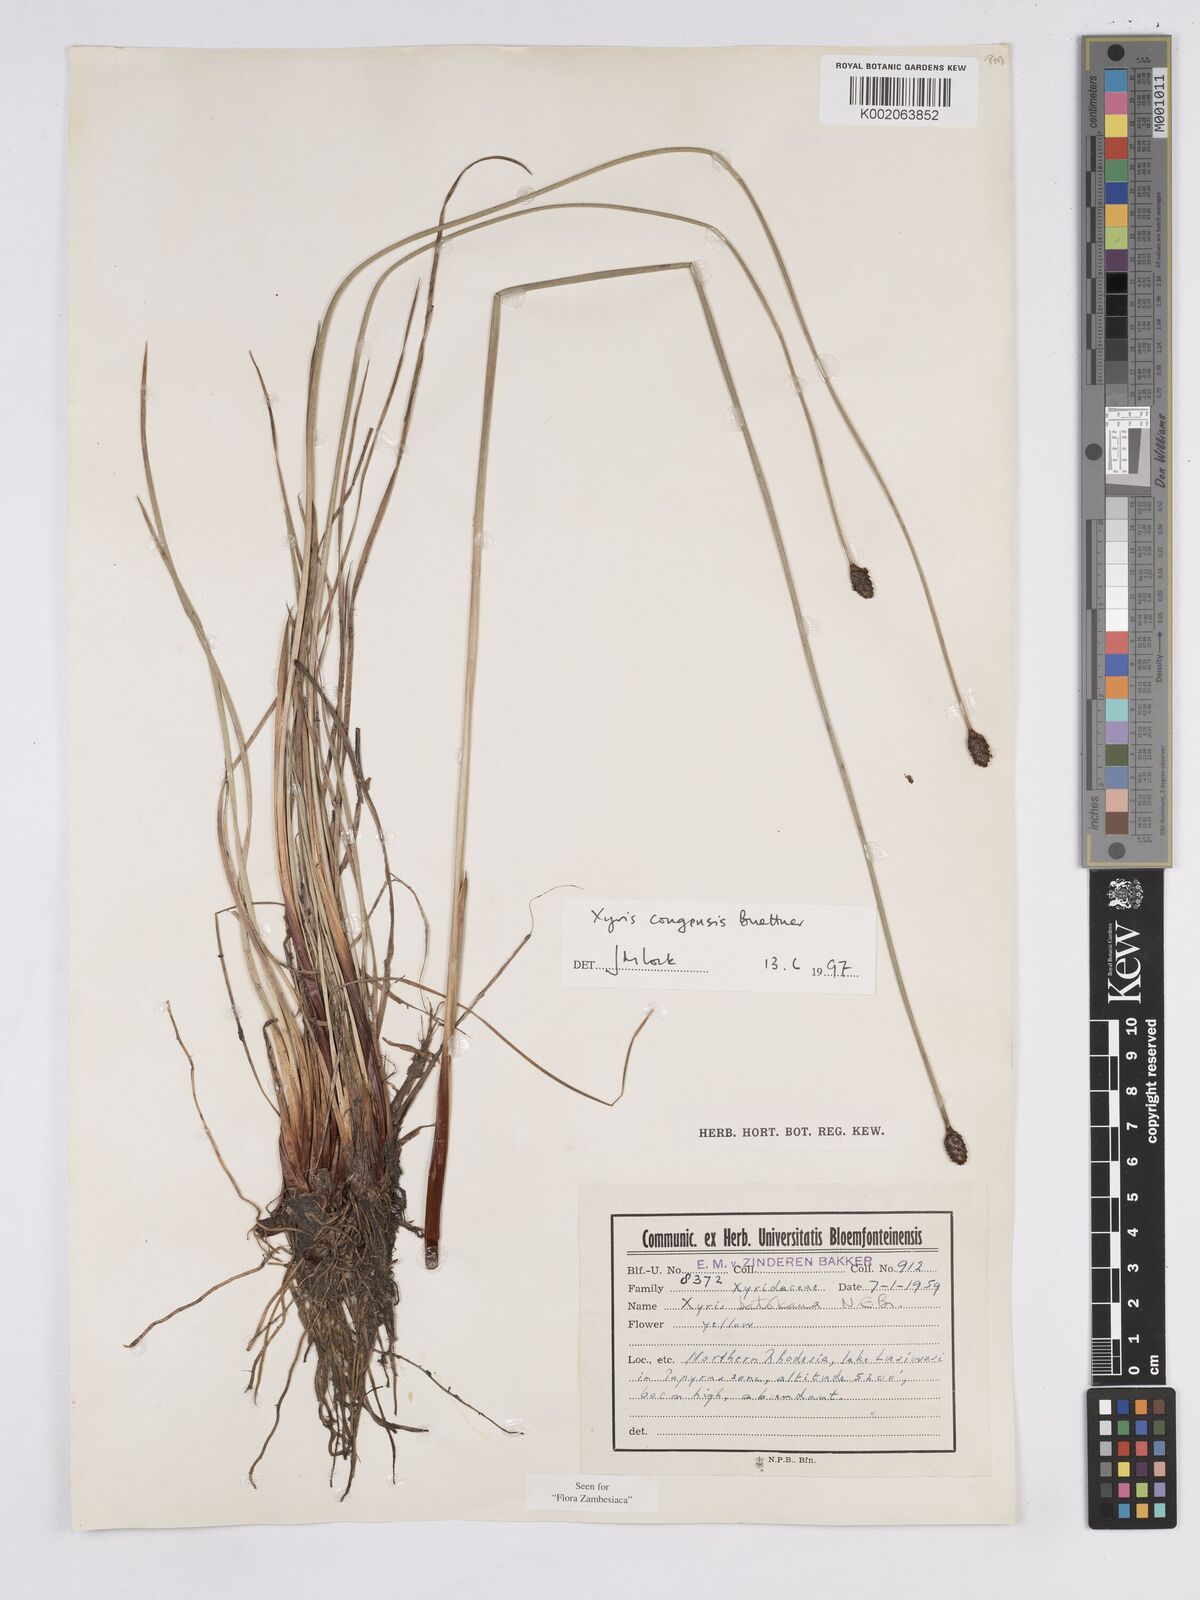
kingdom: Plantae
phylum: Tracheophyta
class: Liliopsida
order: Poales
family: Xyridaceae
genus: Xyris
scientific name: Xyris congensis
